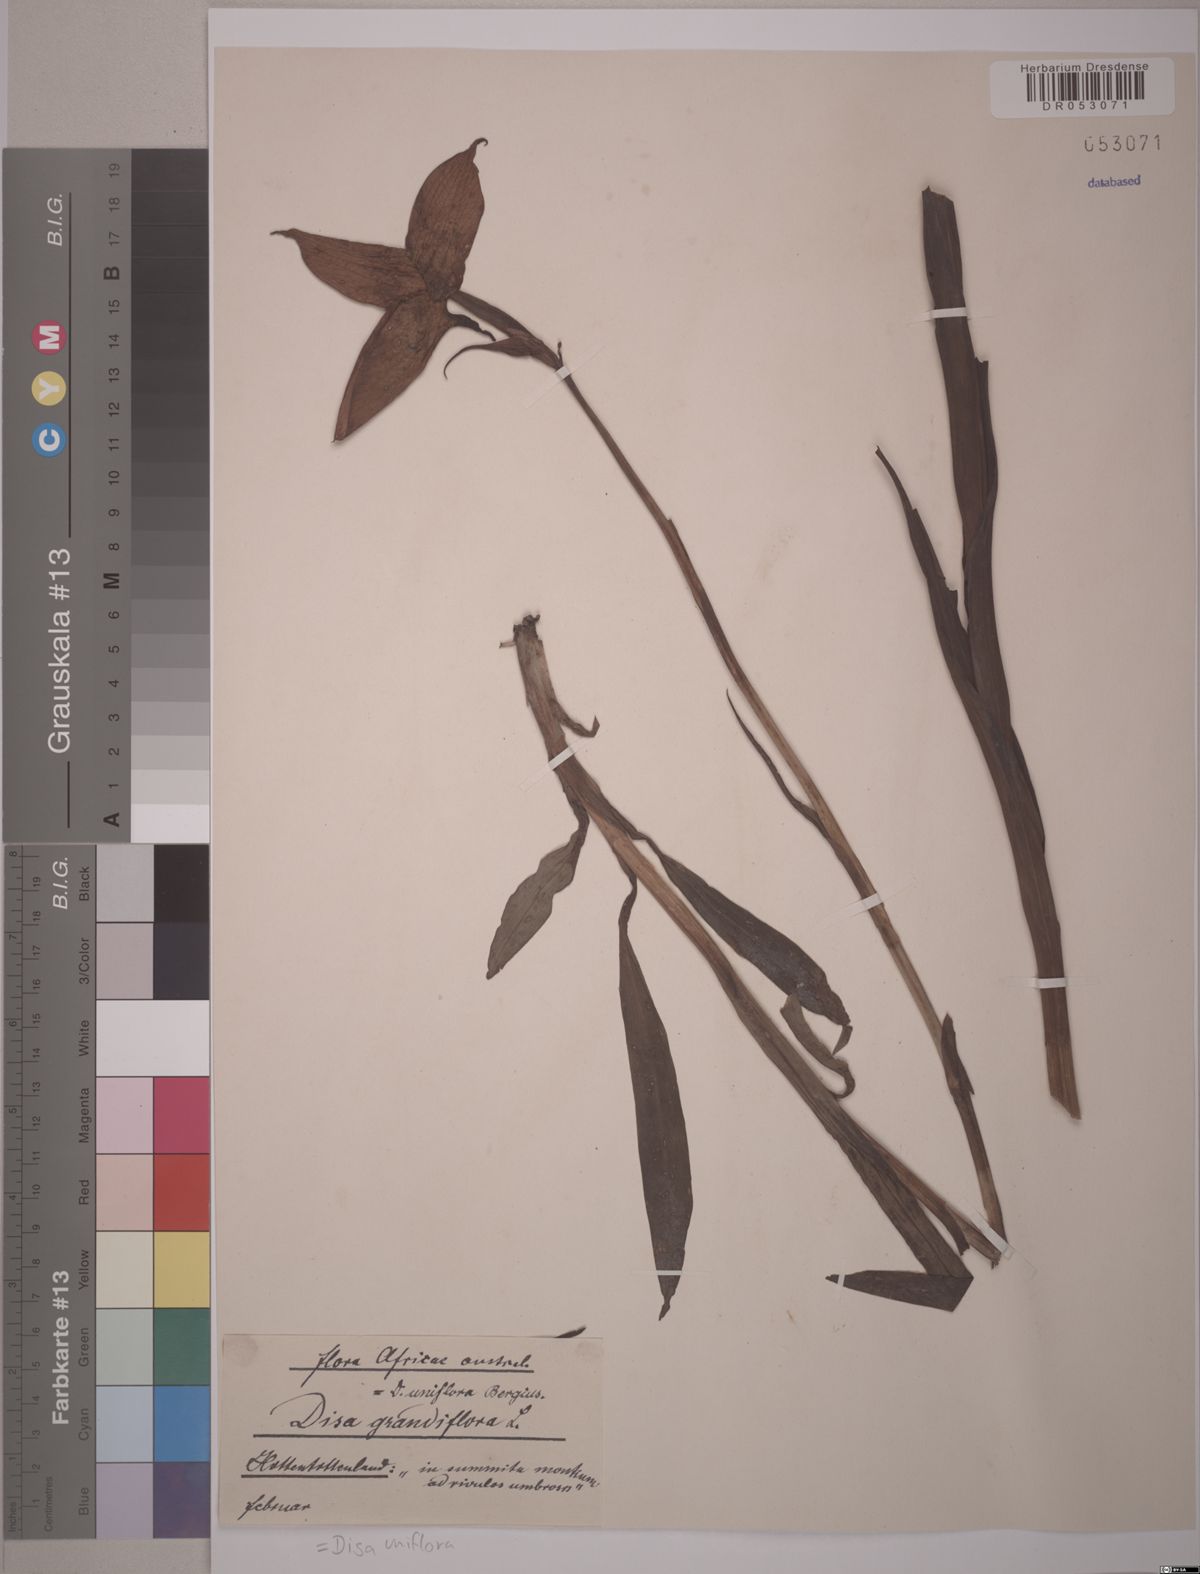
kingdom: Plantae
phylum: Tracheophyta
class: Liliopsida
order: Asparagales
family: Orchidaceae
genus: Disa
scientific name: Disa uniflora
